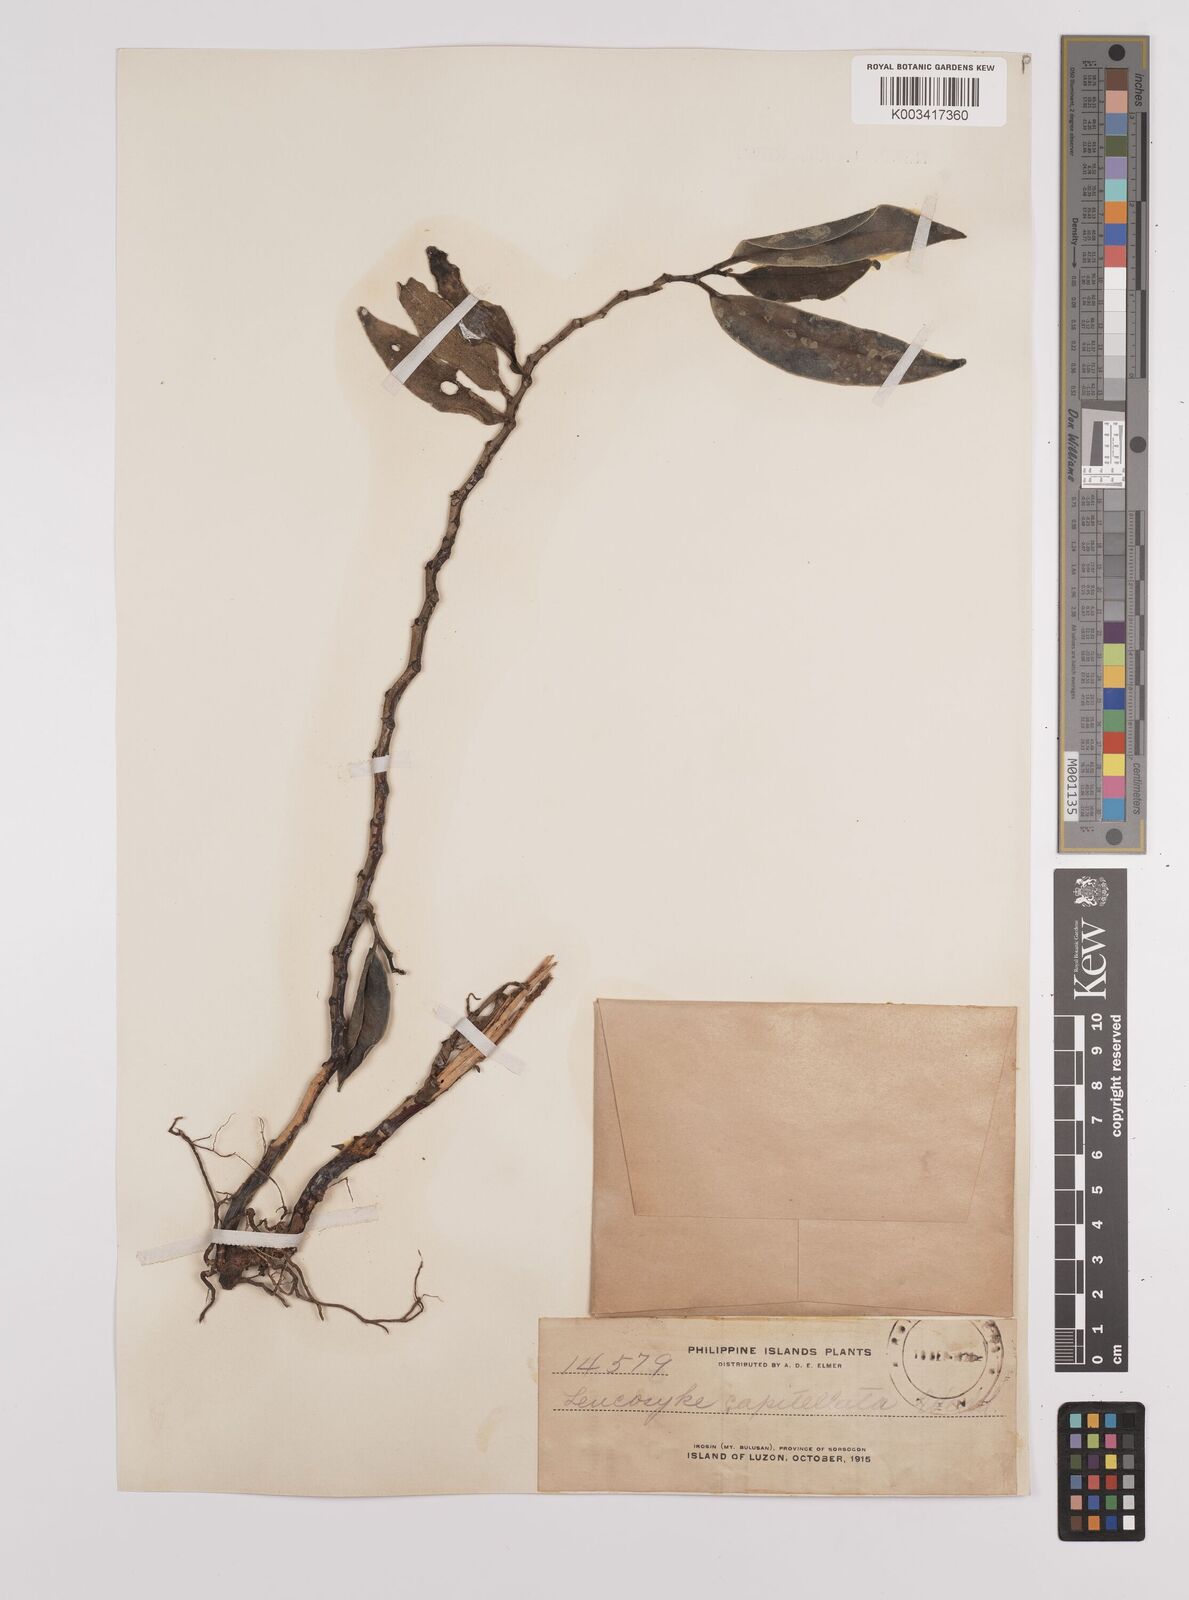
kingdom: Plantae
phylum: Tracheophyta
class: Magnoliopsida
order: Rosales
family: Urticaceae
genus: Procris
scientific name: Procris pedunculata
